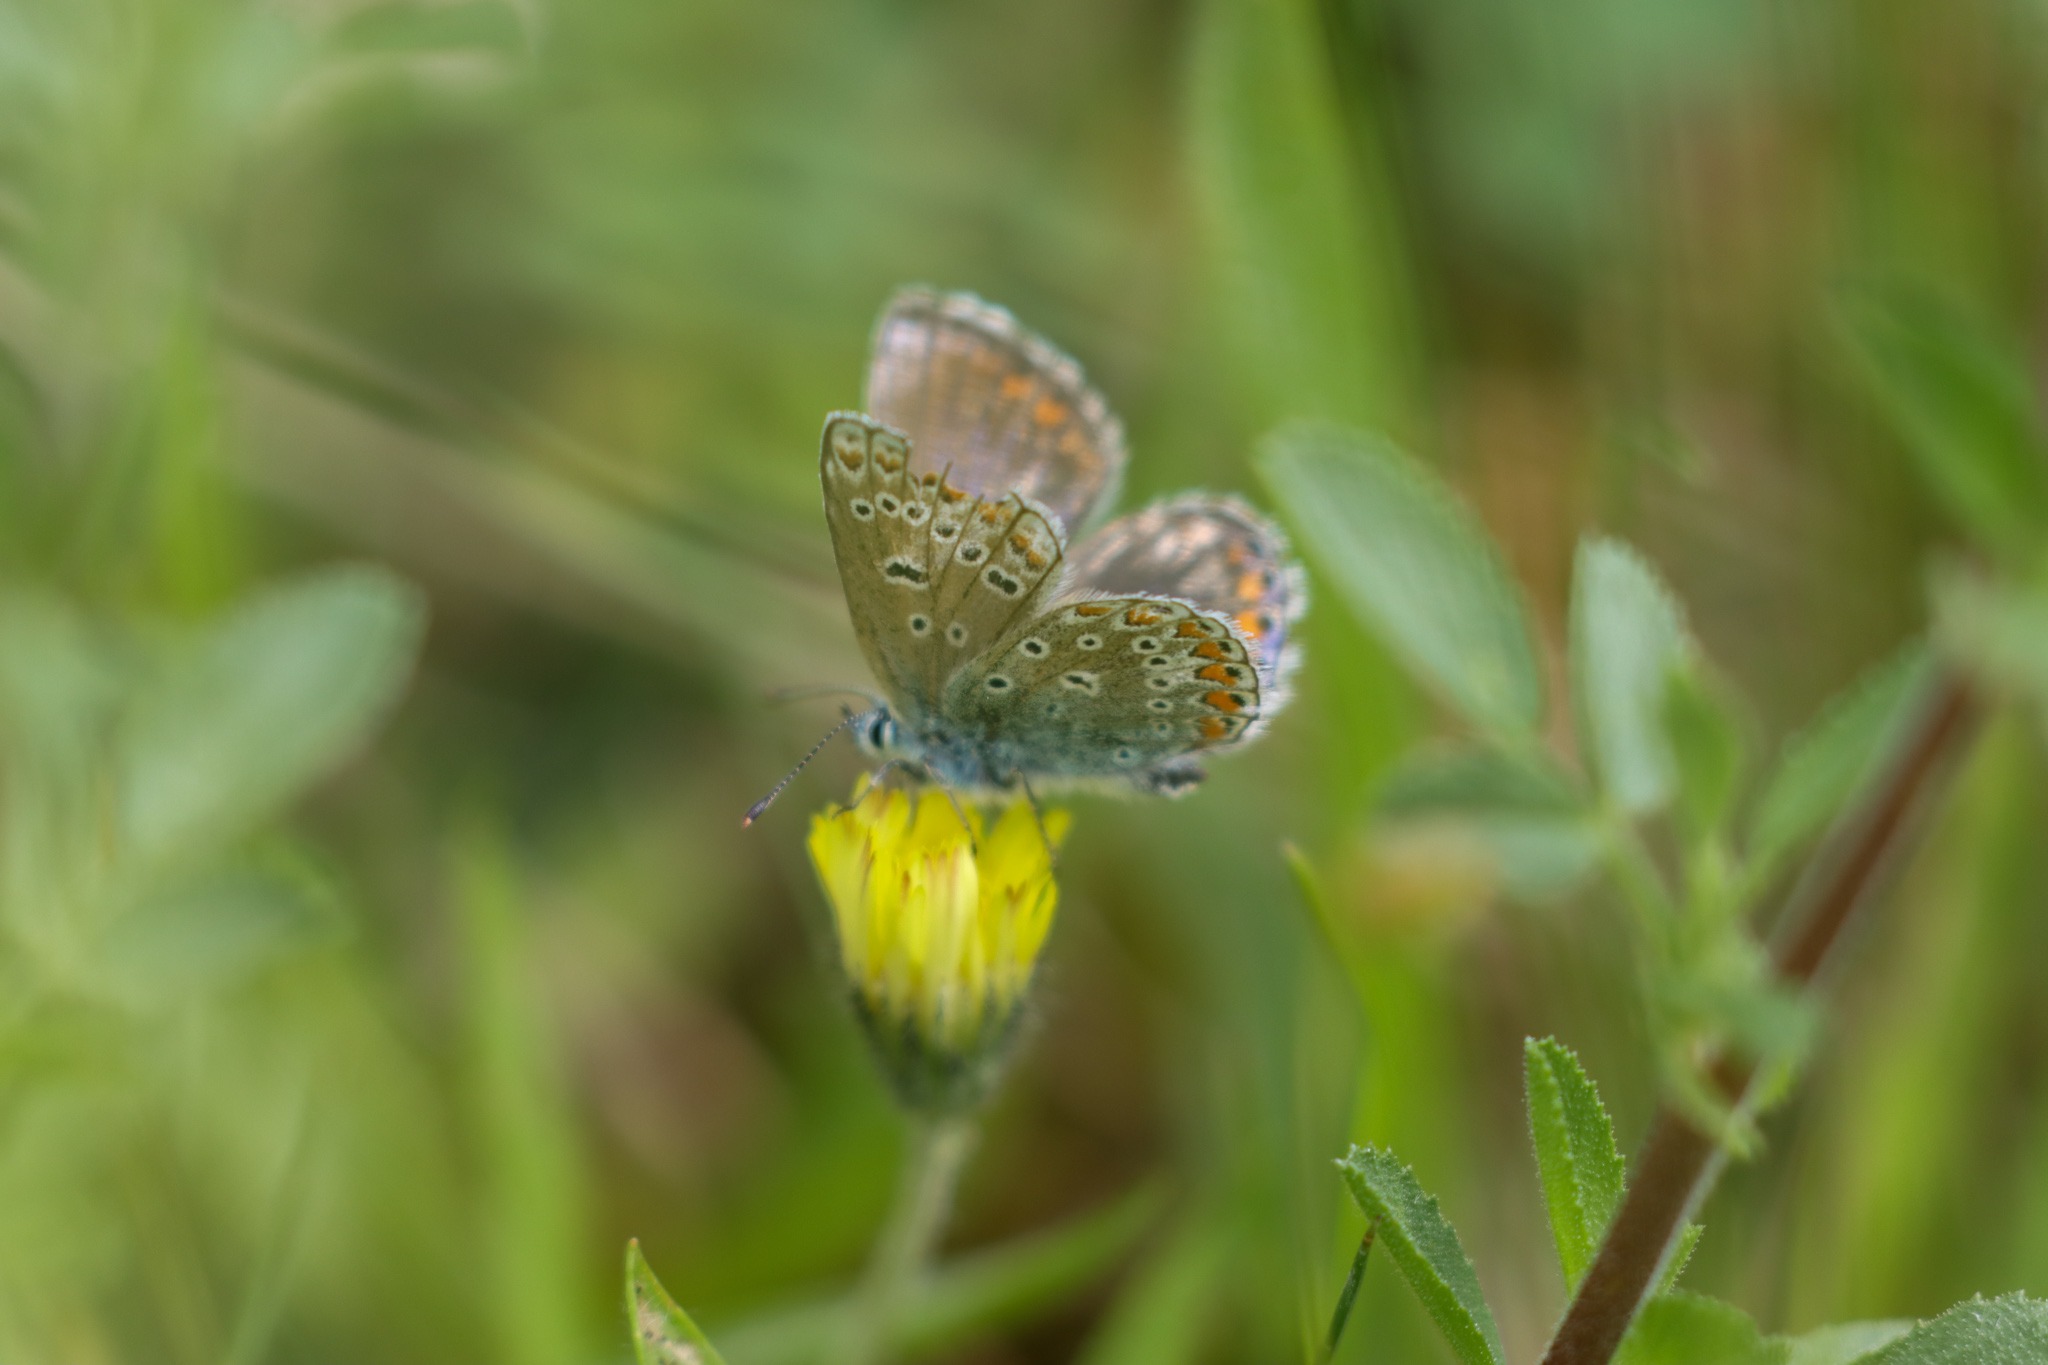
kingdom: Animalia
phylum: Arthropoda
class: Insecta
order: Lepidoptera
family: Lycaenidae
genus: Polyommatus
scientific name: Polyommatus icarus
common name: Almindelig blåfugl
